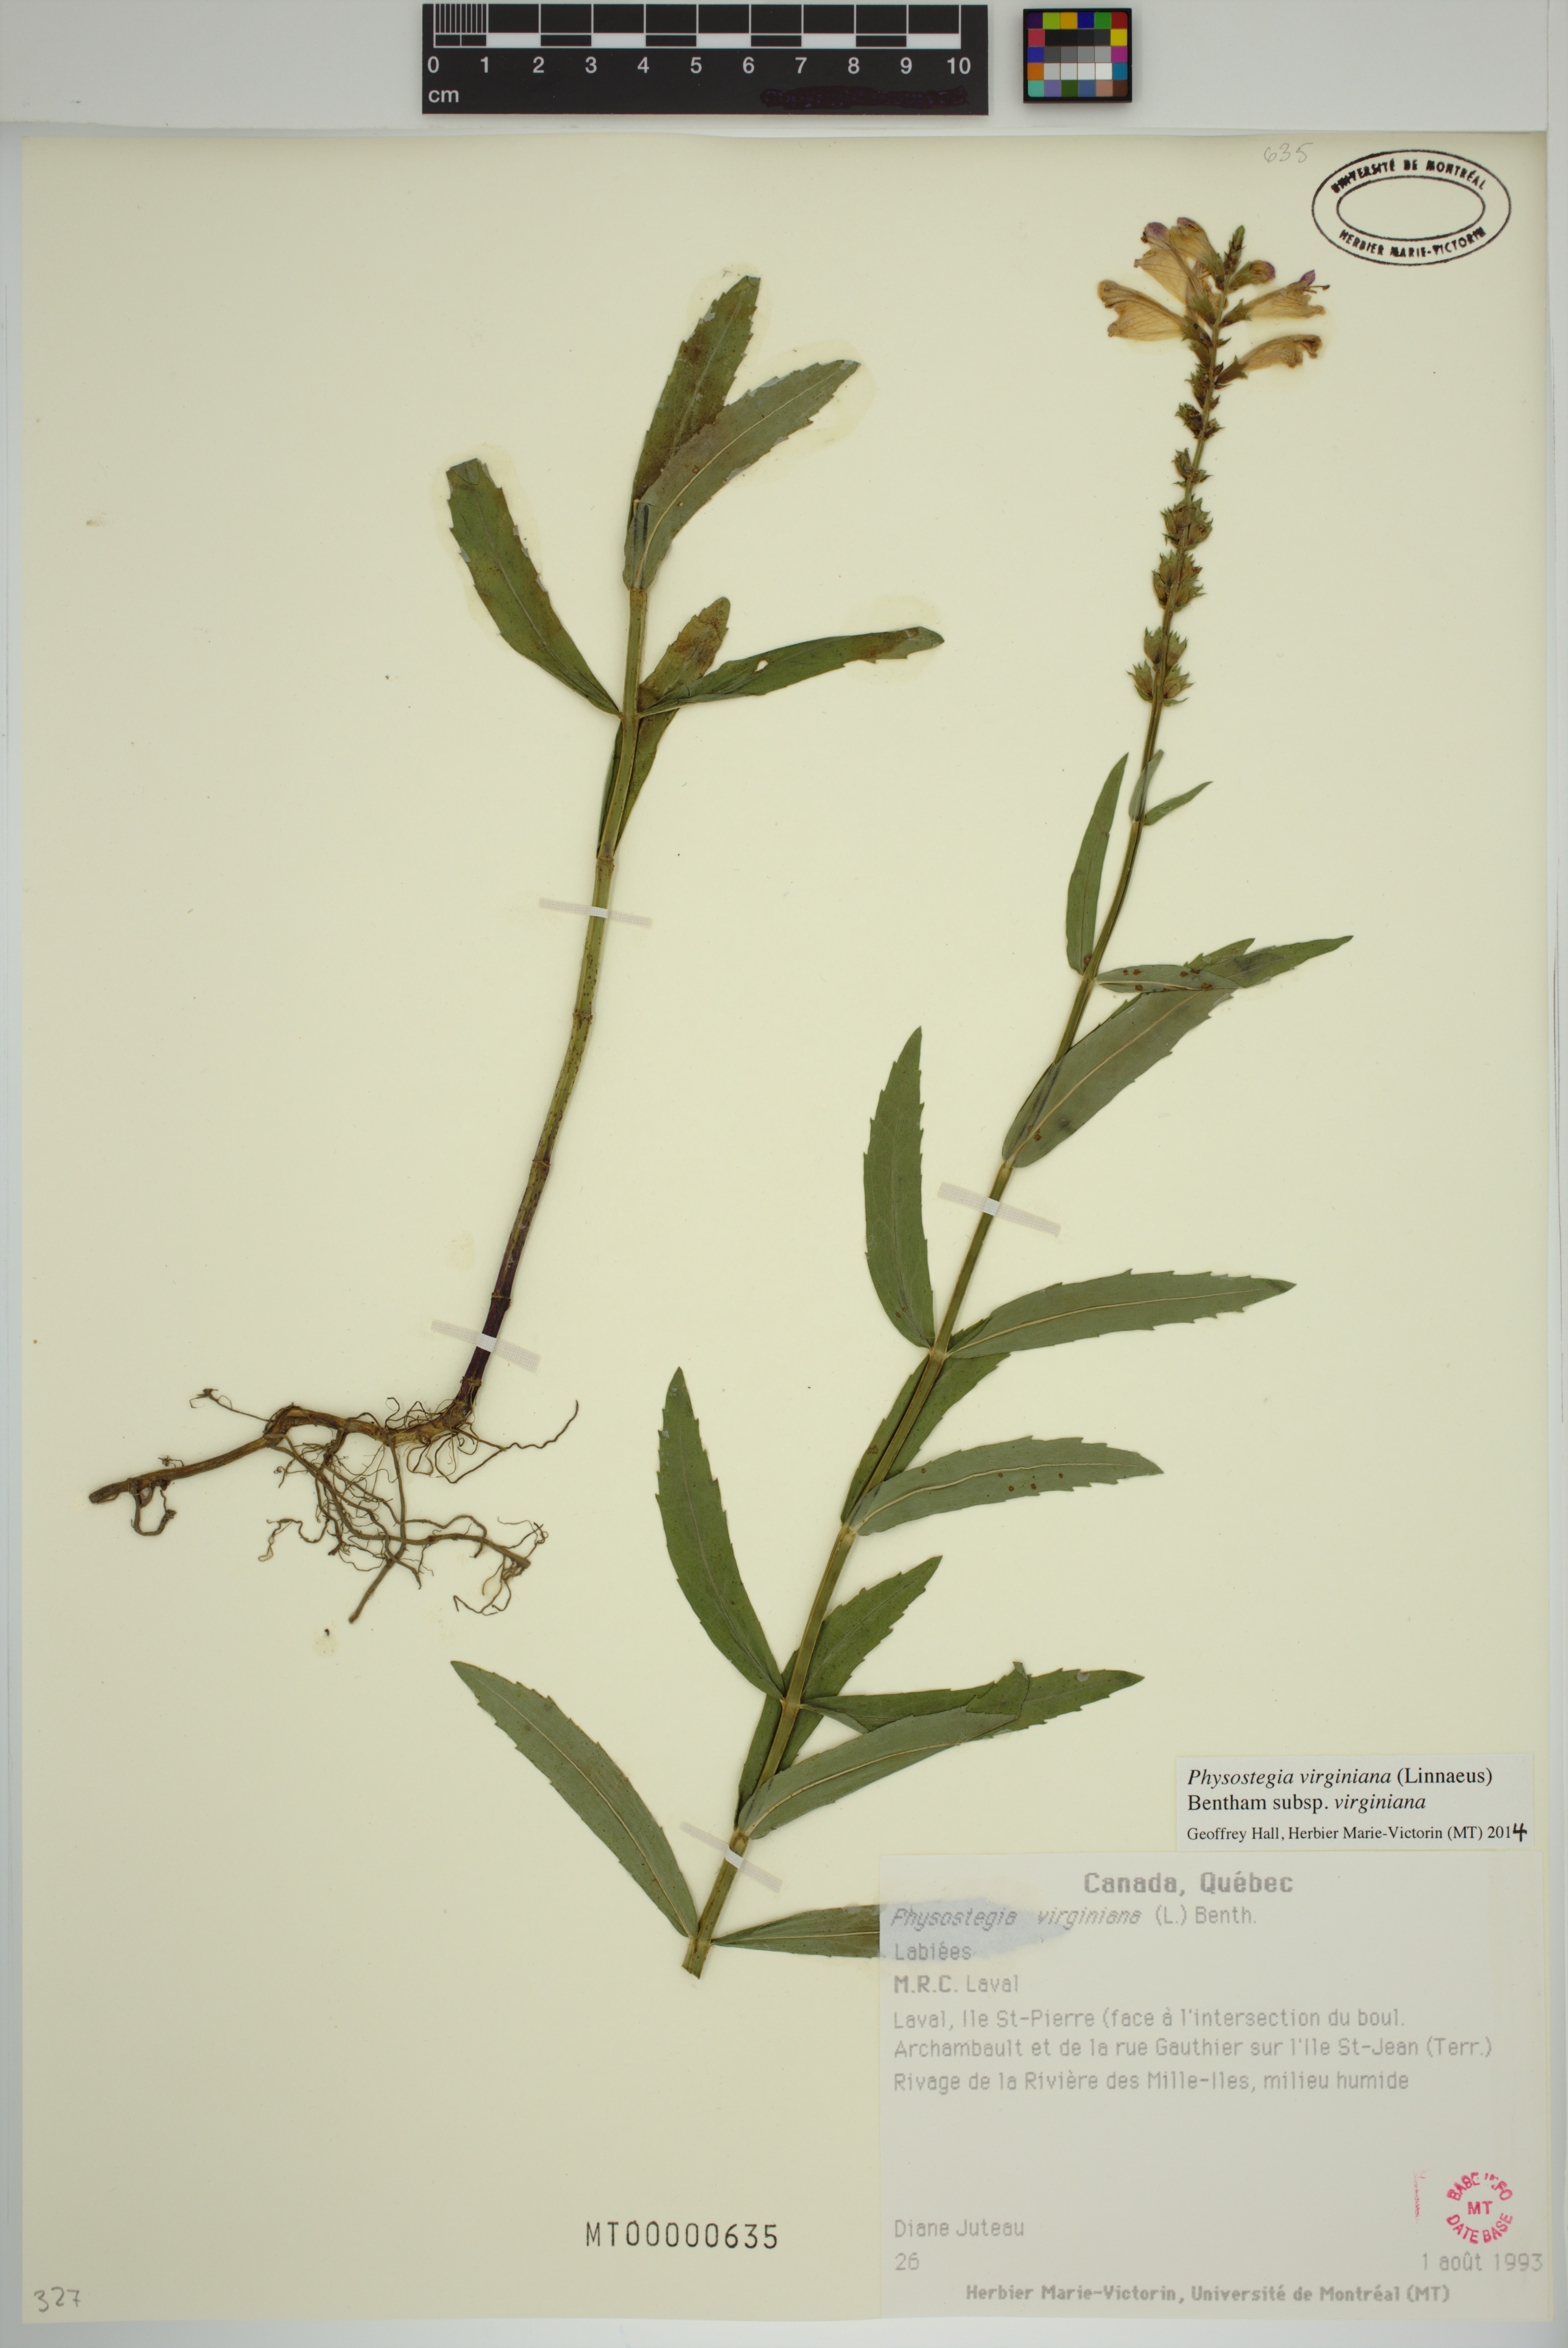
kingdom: Plantae
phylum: Tracheophyta
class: Magnoliopsida
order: Lamiales
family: Lamiaceae
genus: Physostegia
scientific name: Physostegia virginiana
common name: Obedient-plant
